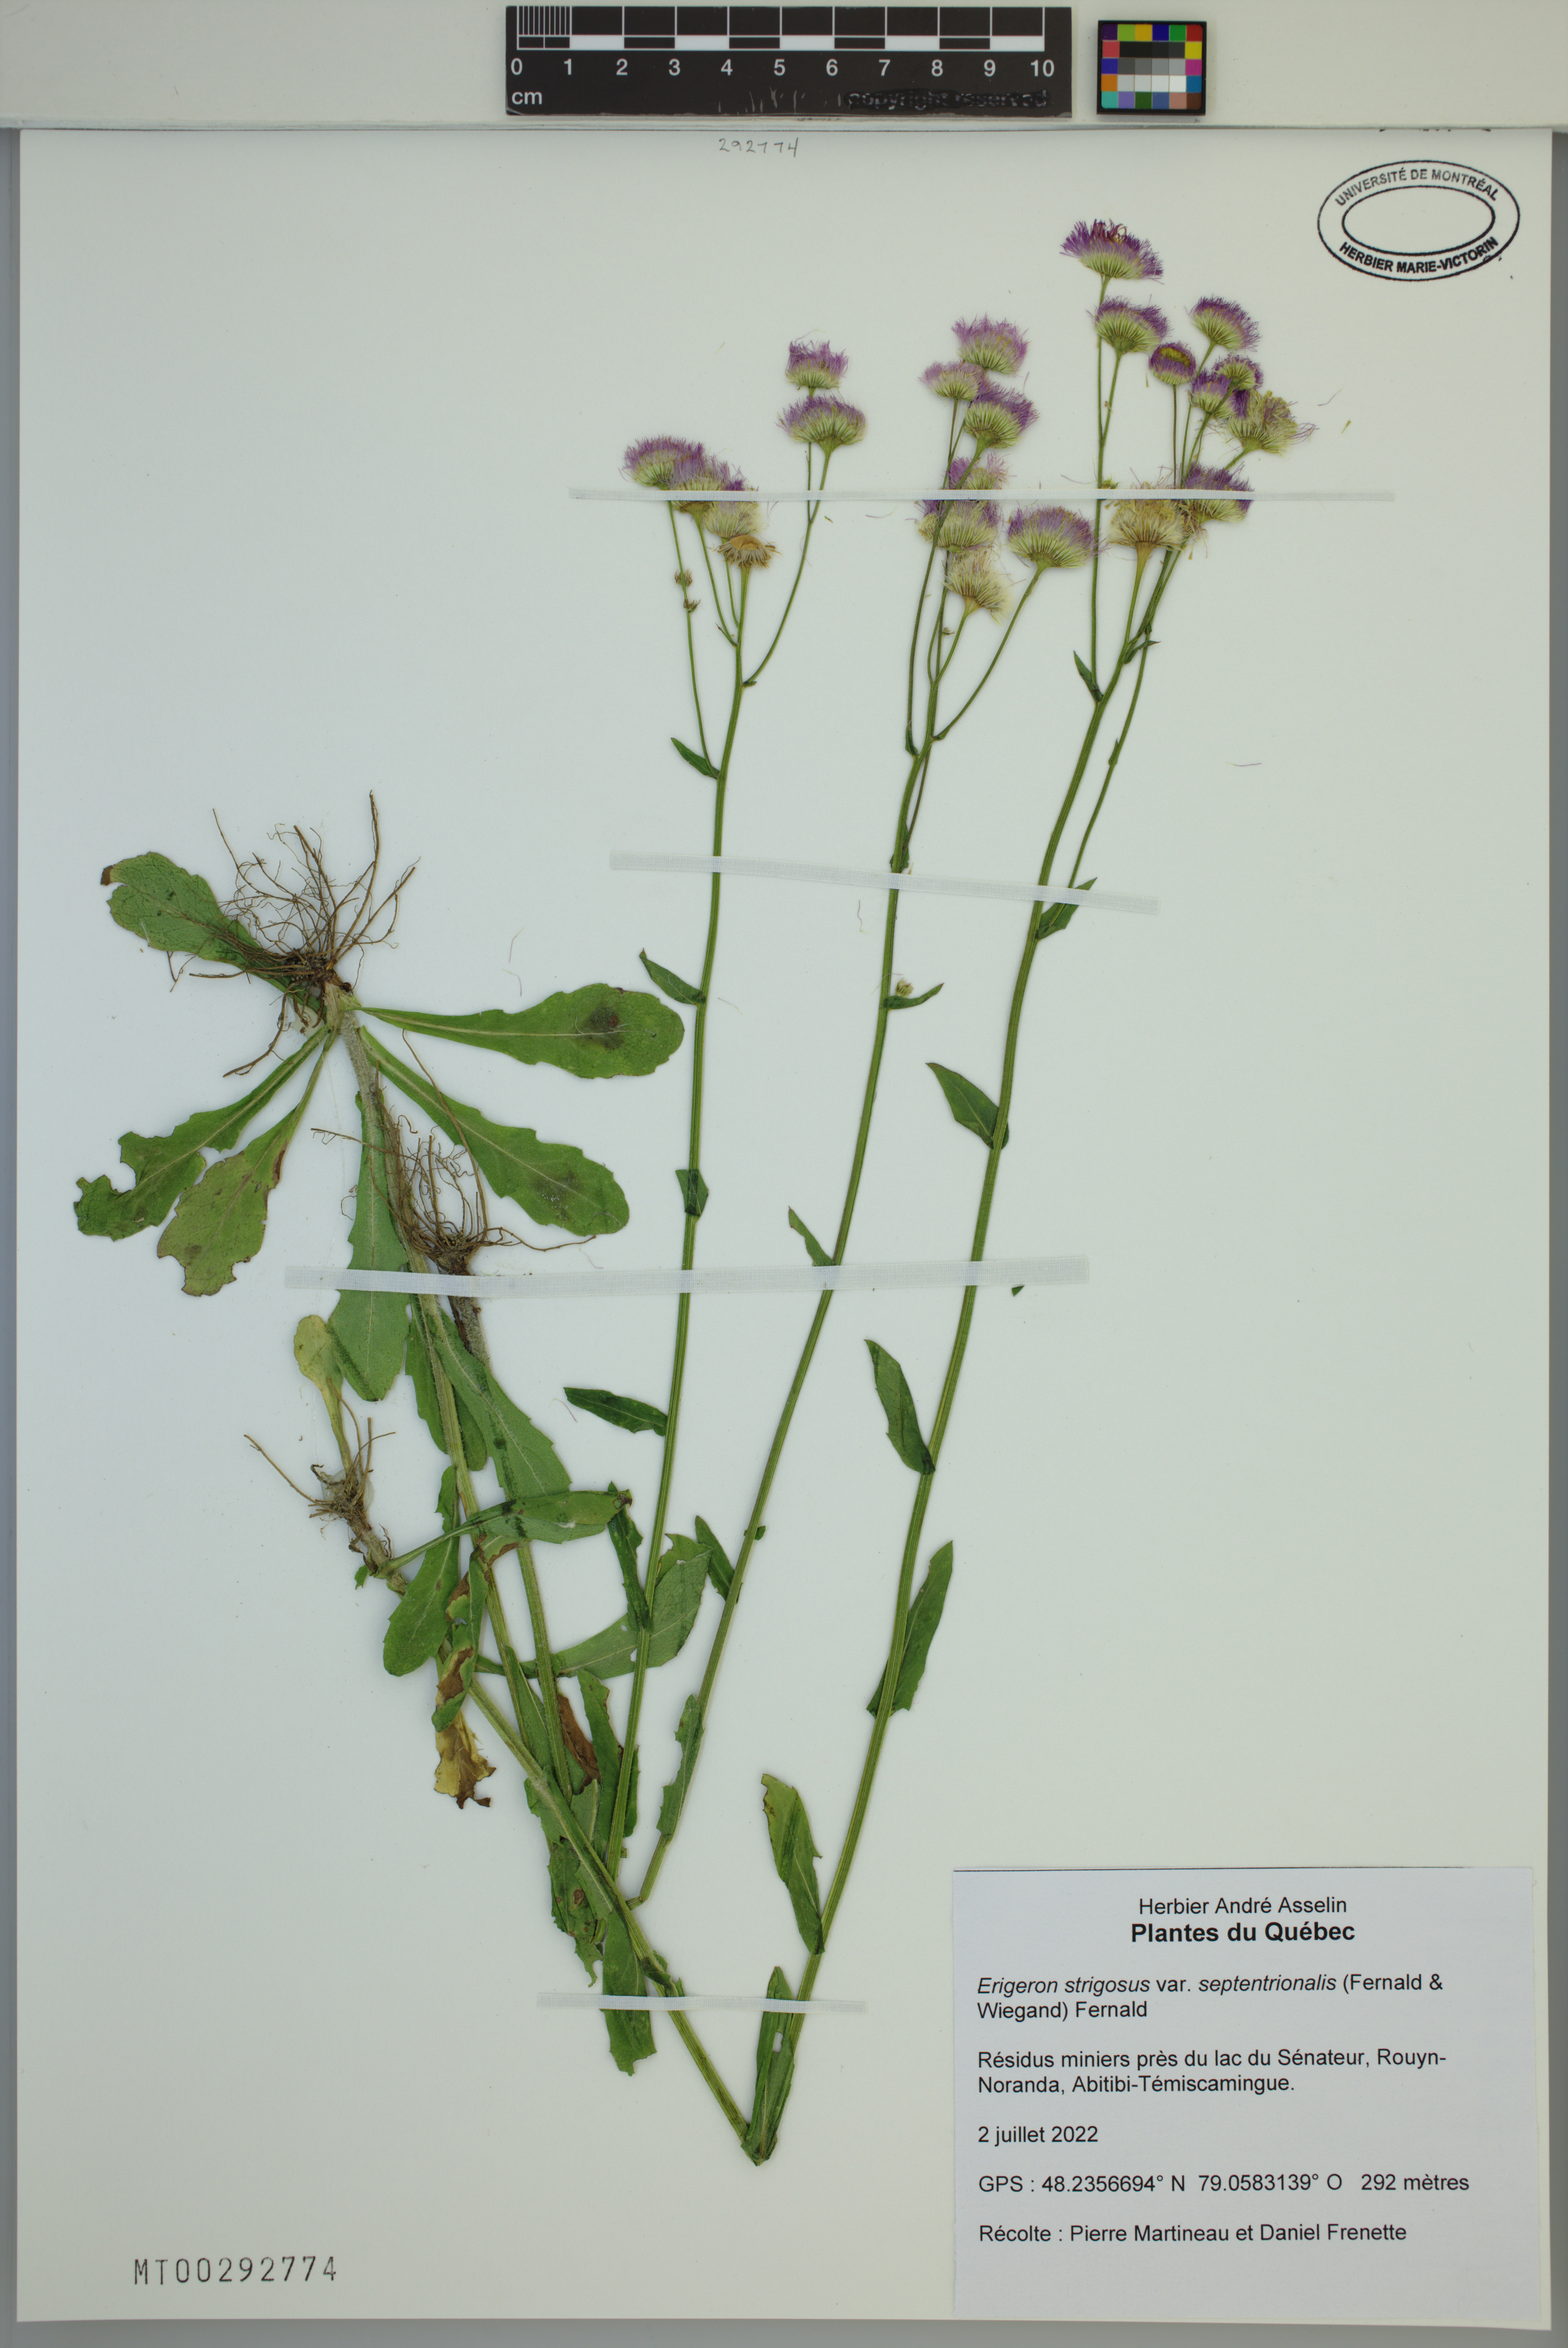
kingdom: Plantae
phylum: Tracheophyta
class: Magnoliopsida
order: Asterales
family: Asteraceae
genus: Erigeron
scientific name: Erigeron annuus
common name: Tall fleabane
